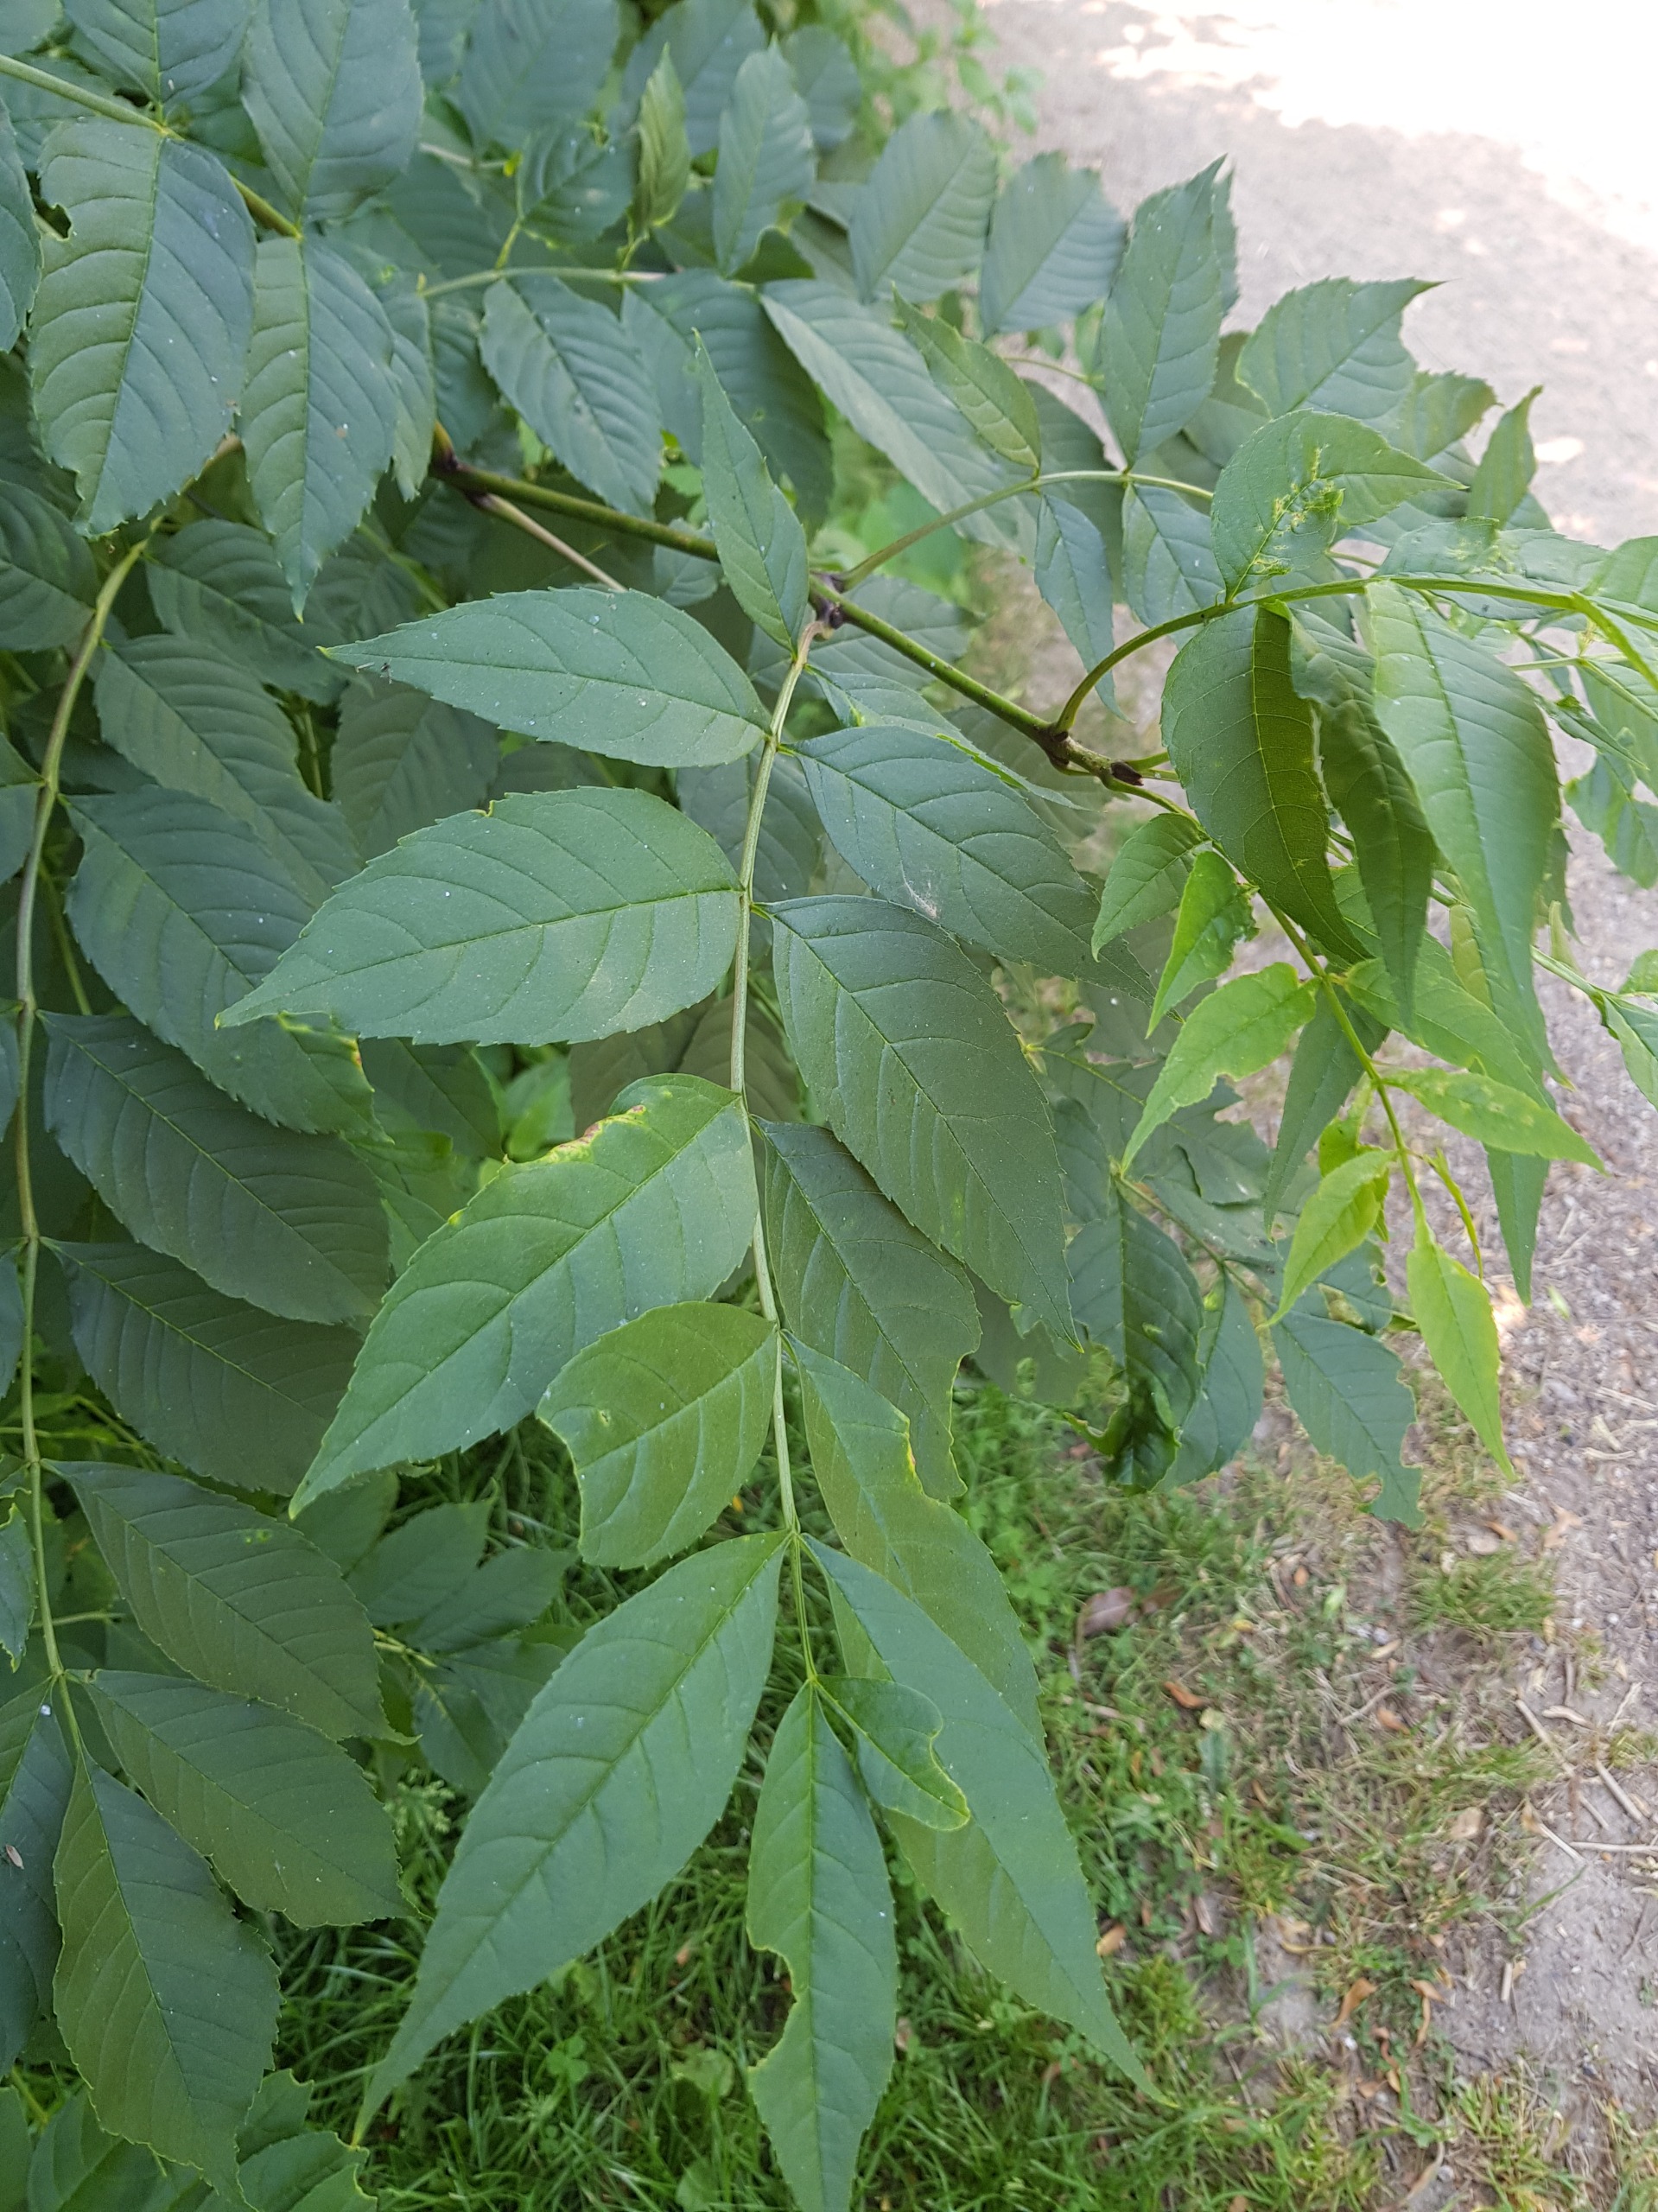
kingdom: Plantae
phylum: Tracheophyta
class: Magnoliopsida
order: Lamiales
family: Oleaceae
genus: Fraxinus
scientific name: Fraxinus excelsior
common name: Ask
